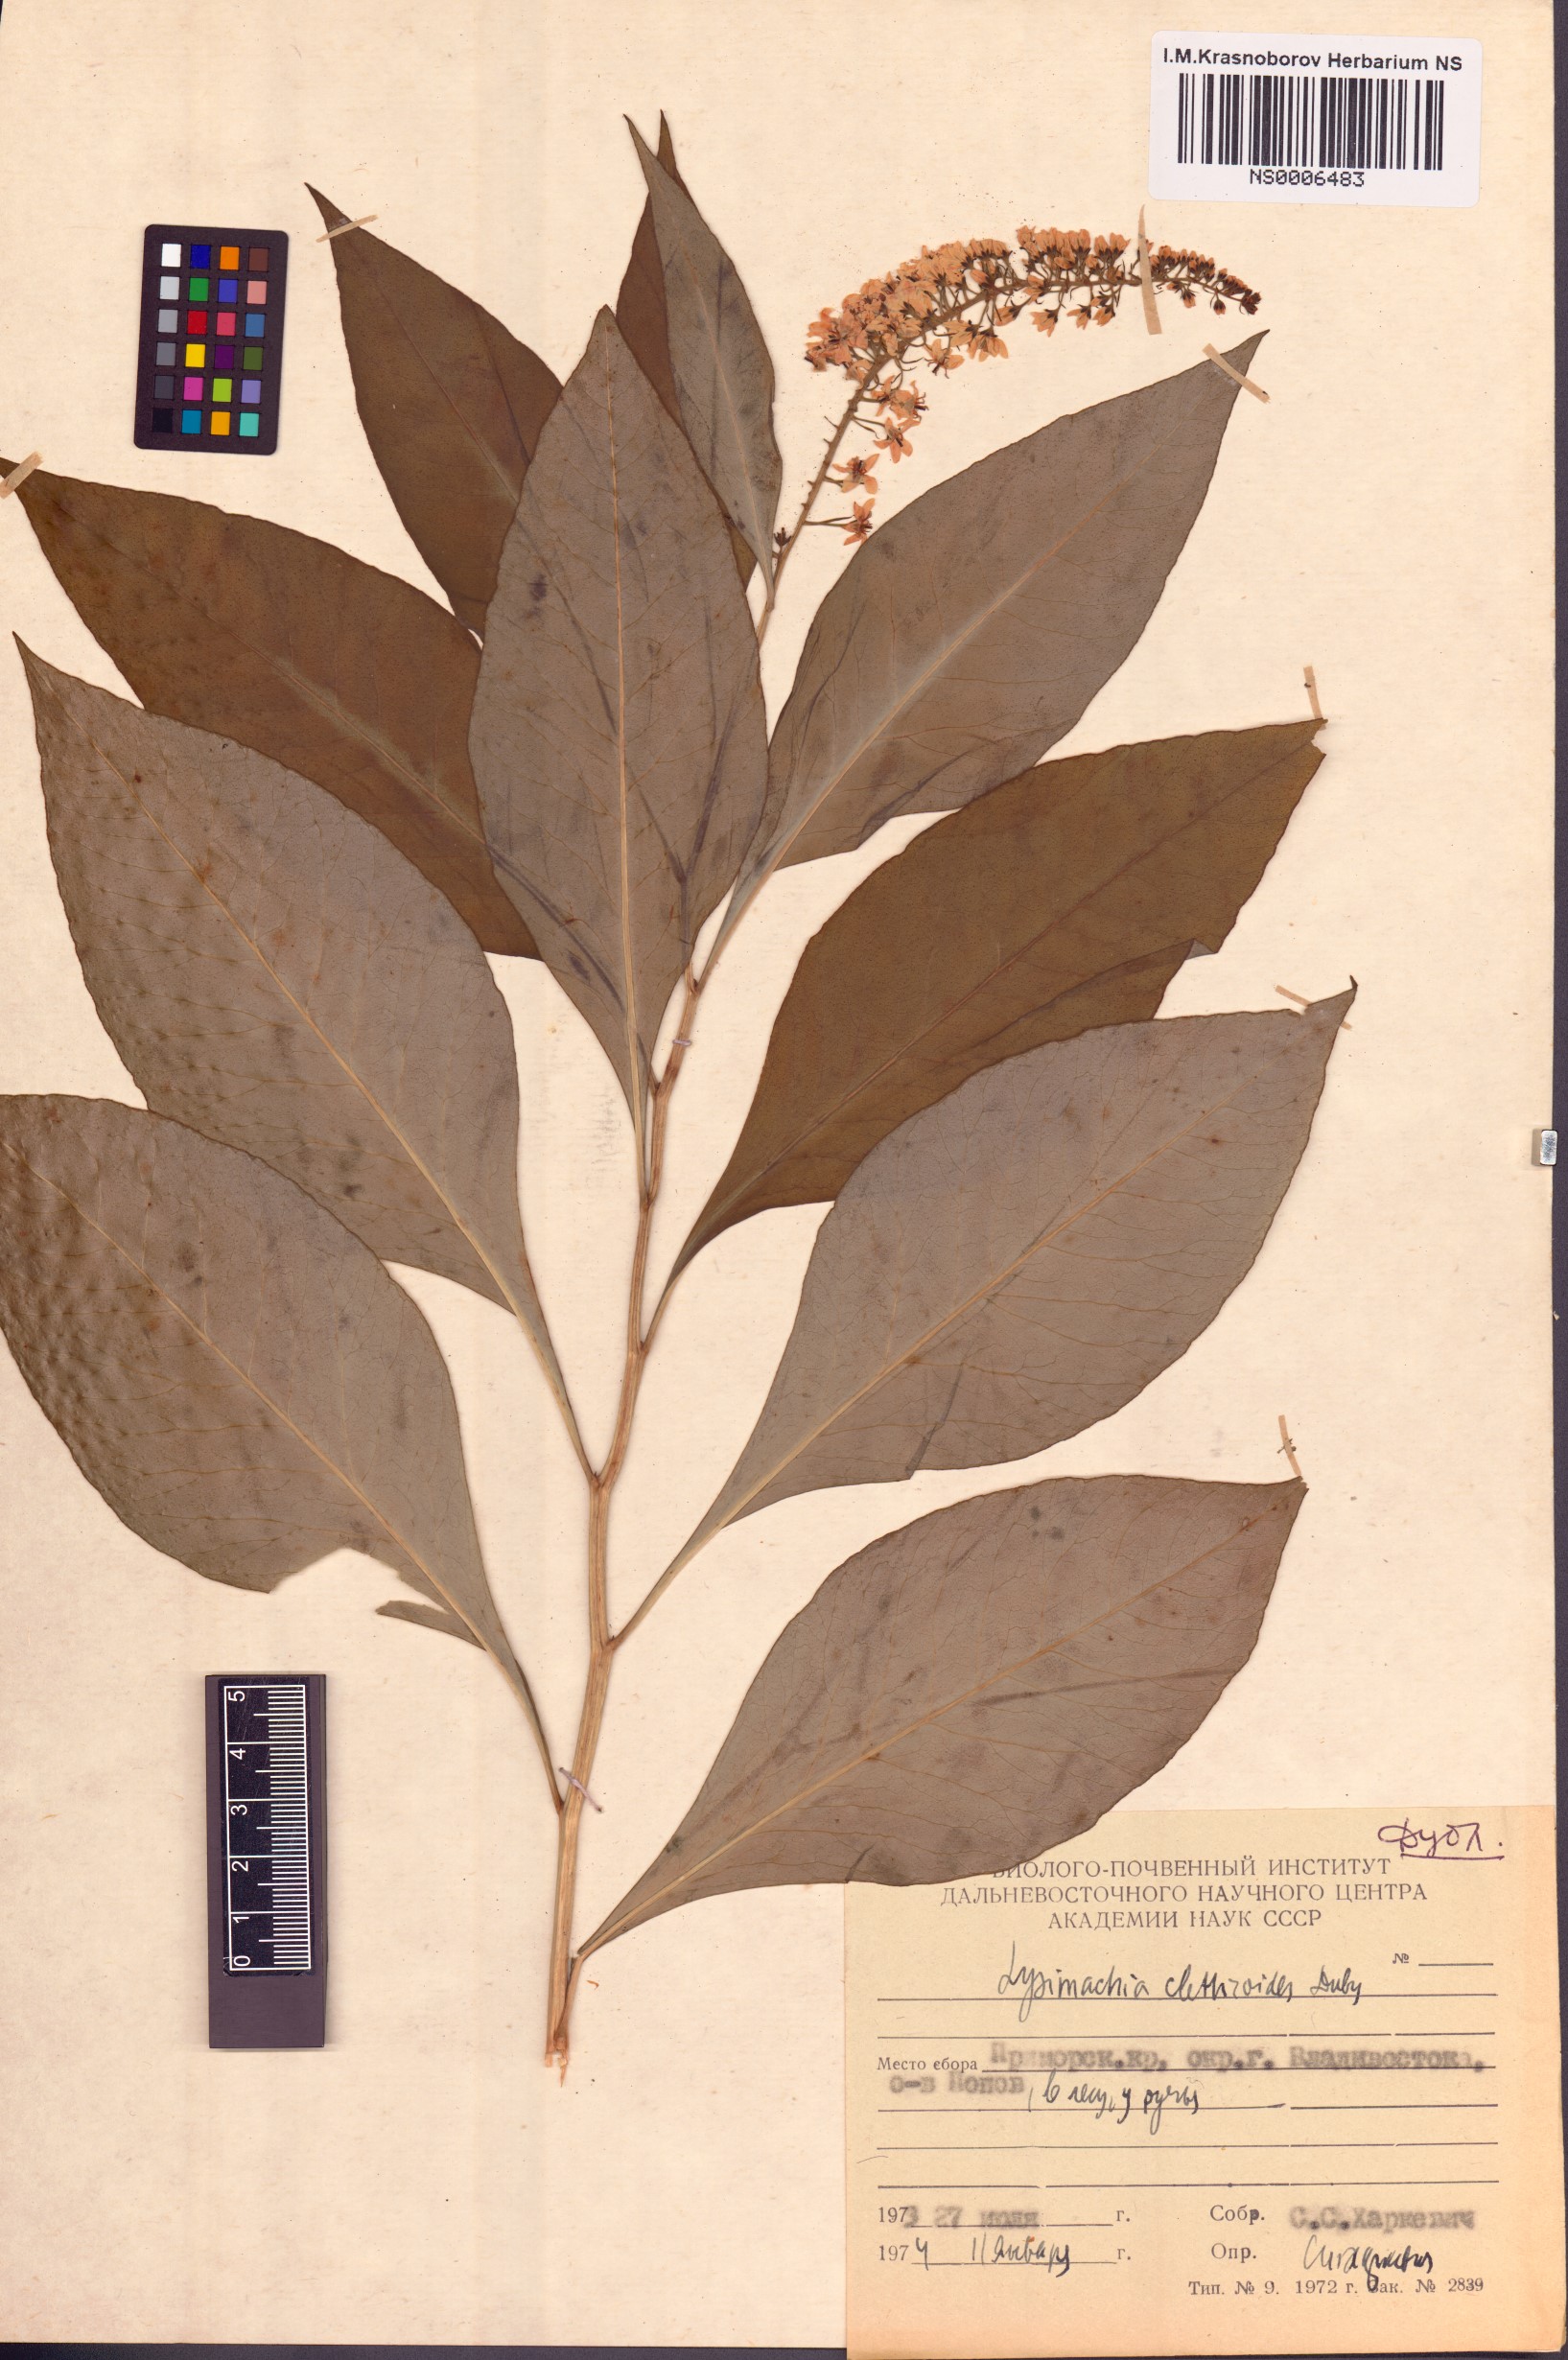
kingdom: Plantae
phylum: Tracheophyta
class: Magnoliopsida
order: Ericales
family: Primulaceae
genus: Lysimachia
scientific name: Lysimachia clethroides
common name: Gooseneck loosestrife
